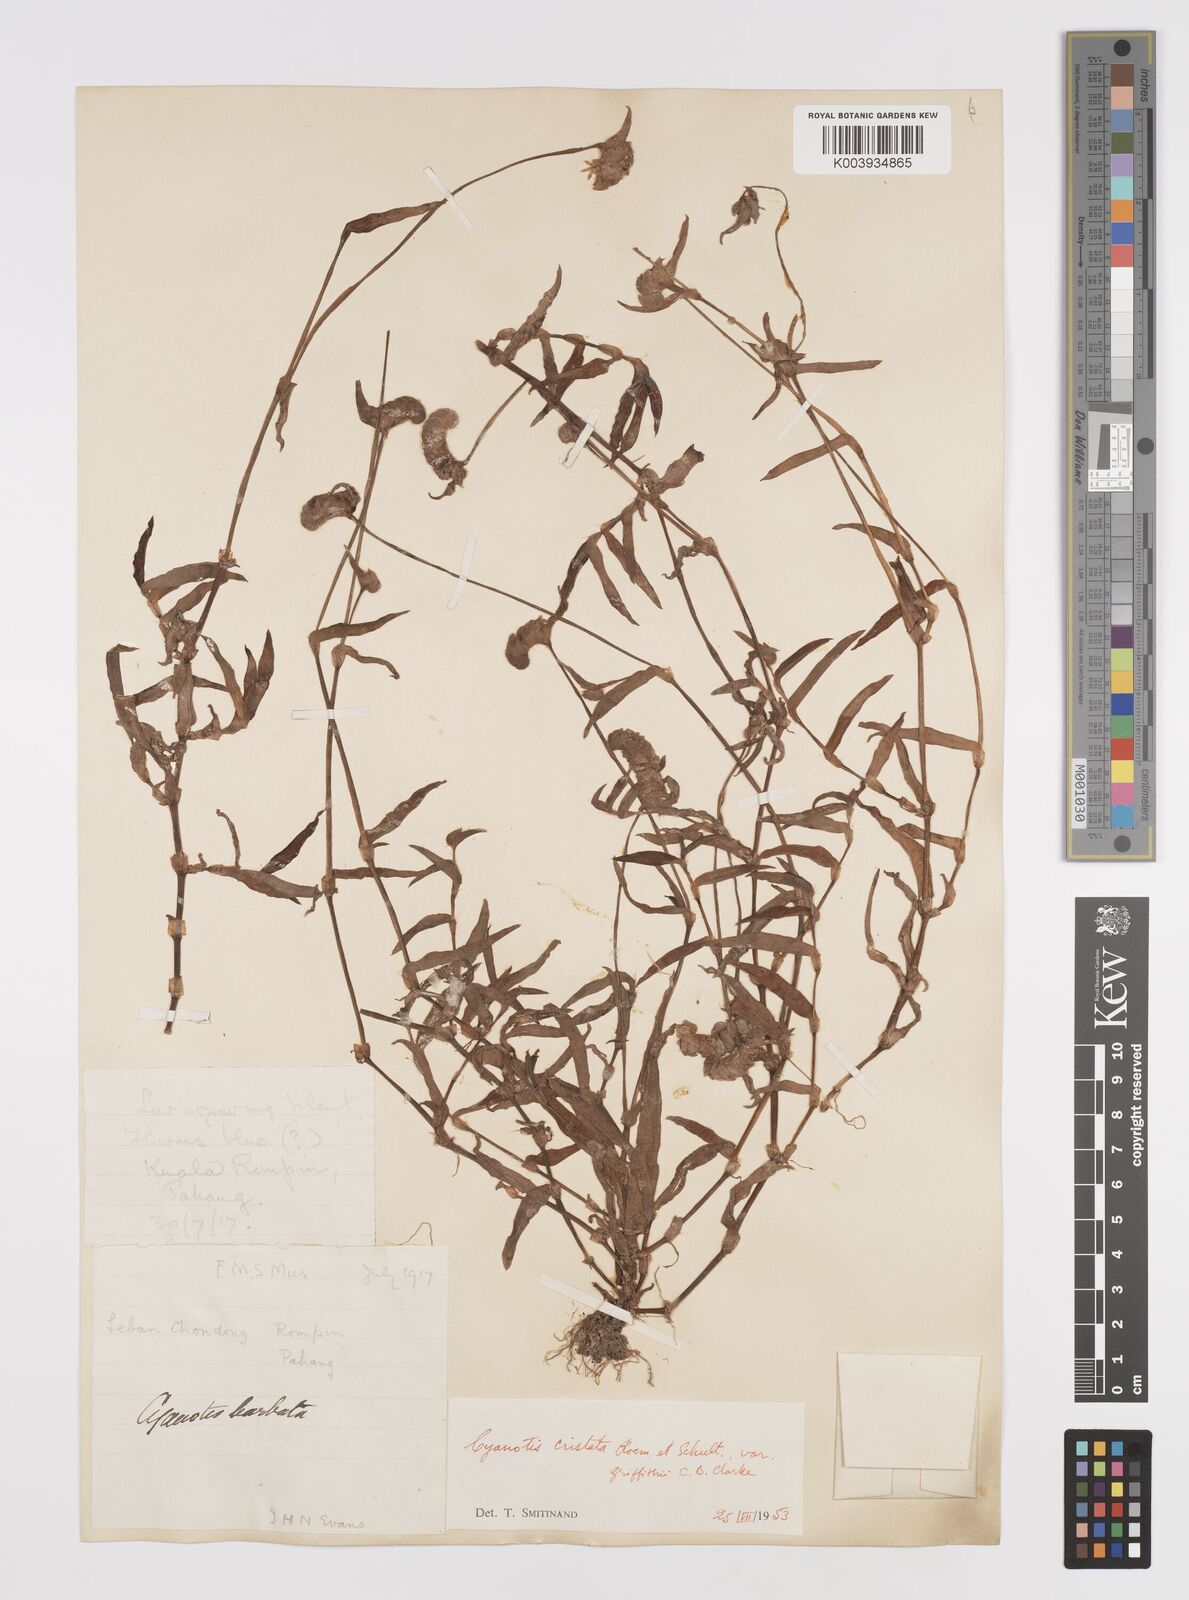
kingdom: Plantae
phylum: Tracheophyta
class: Liliopsida
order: Commelinales
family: Commelinaceae
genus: Cyanotis
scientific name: Cyanotis cristata
